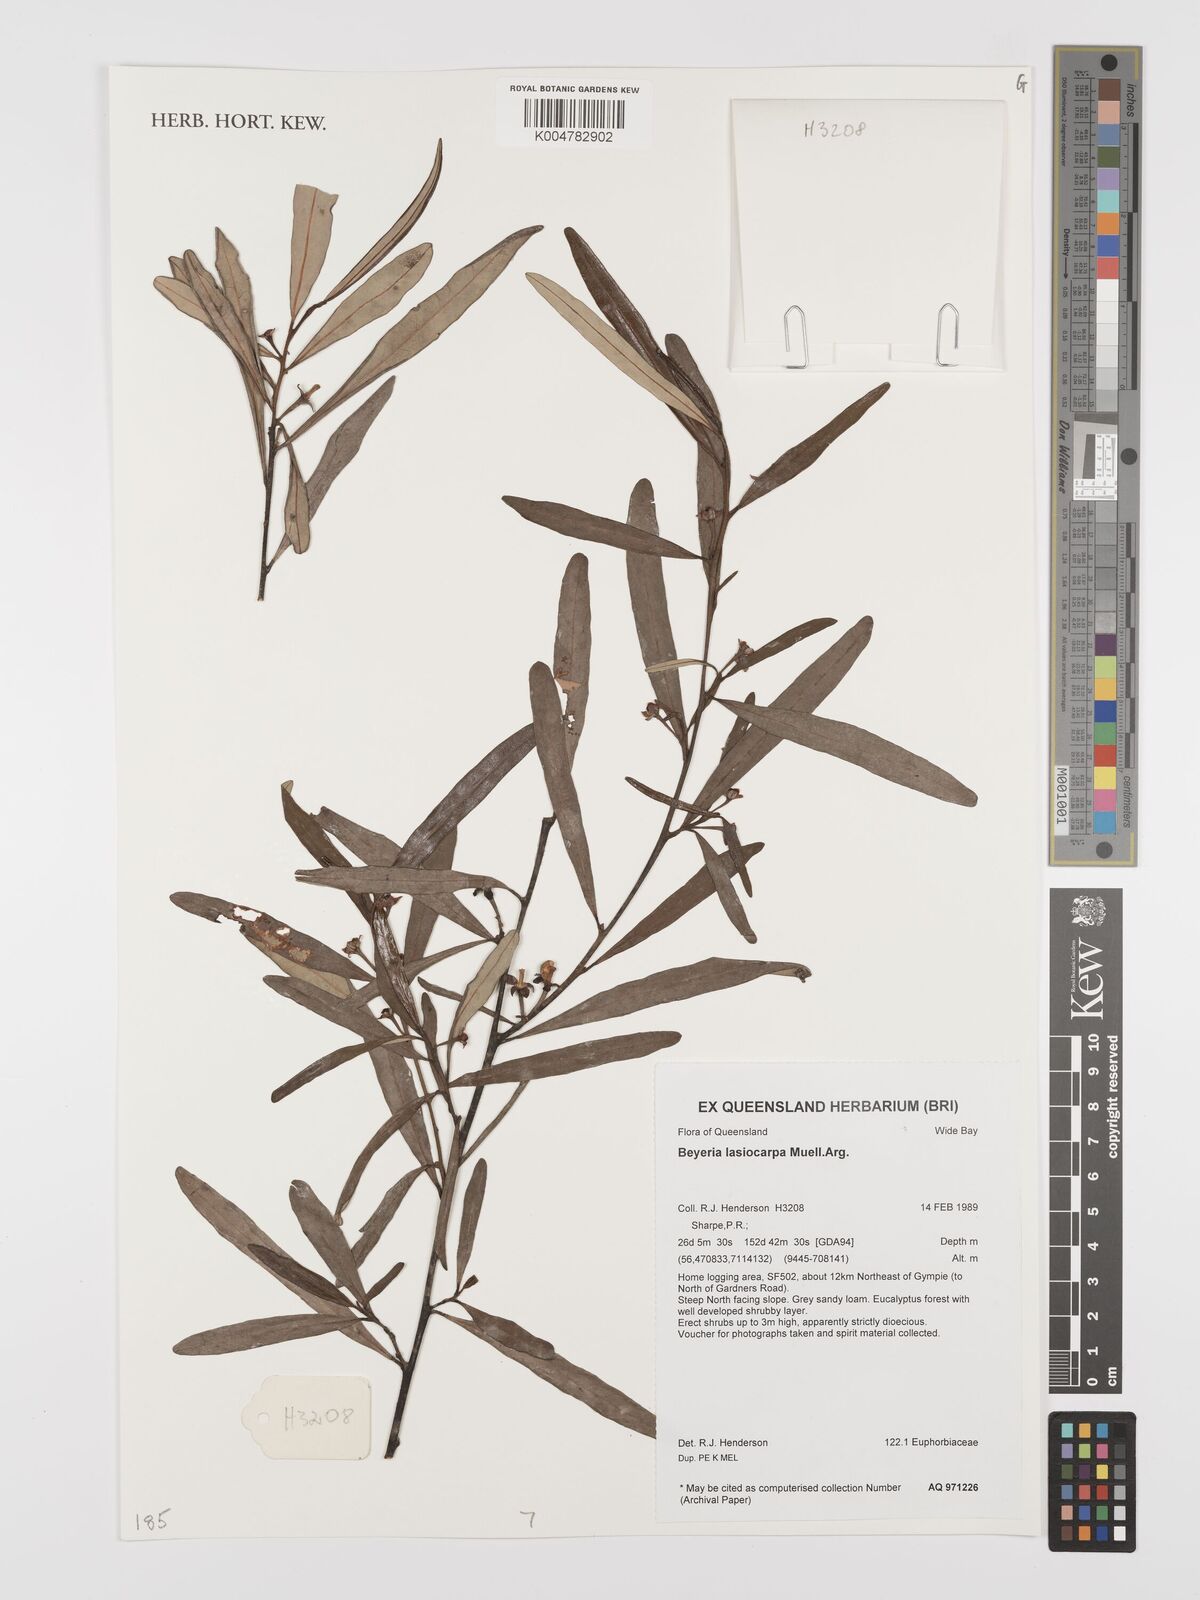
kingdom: Plantae
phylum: Tracheophyta
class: Magnoliopsida
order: Malpighiales
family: Euphorbiaceae
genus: Beyeria
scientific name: Beyeria lasiocarpa
